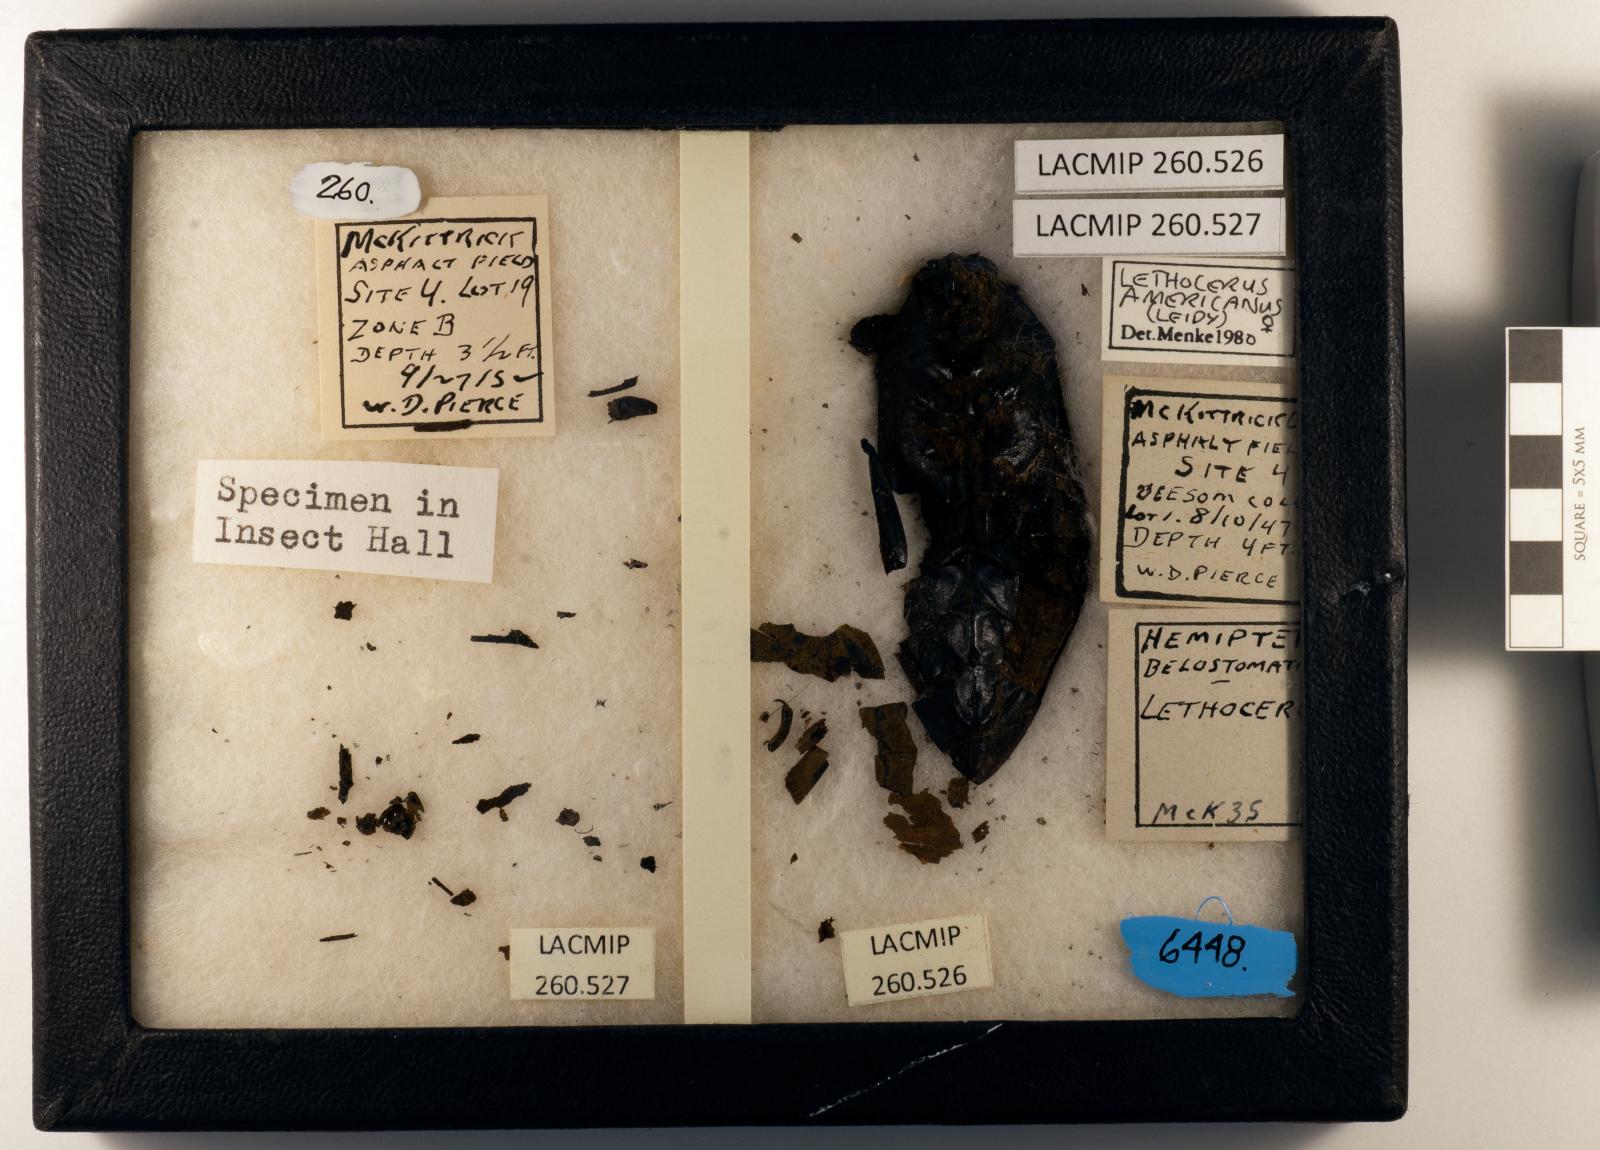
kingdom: Animalia
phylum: Arthropoda
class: Insecta
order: Hemiptera
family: Belostomatidae
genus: Lethocerus
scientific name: Lethocerus americanus
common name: Giant water bug
